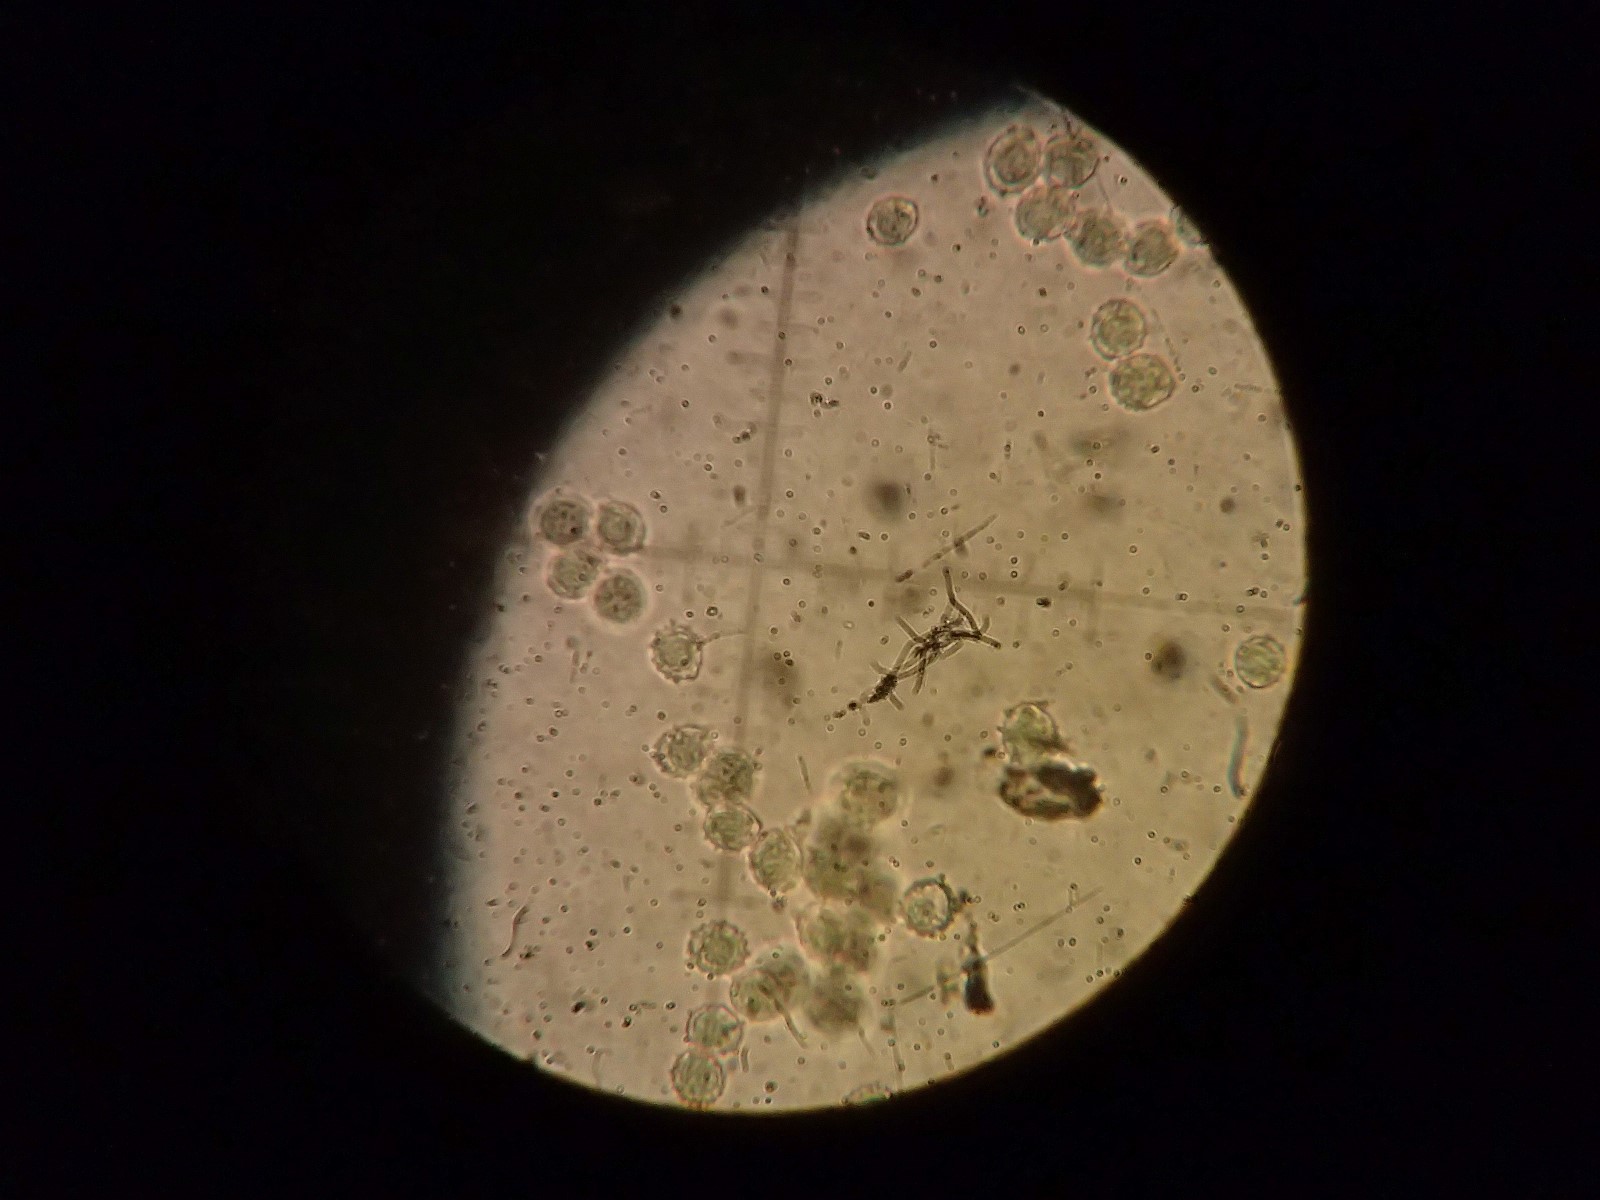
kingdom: Fungi
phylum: Basidiomycota
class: Agaricomycetes
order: Russulales
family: Russulaceae
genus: Russula
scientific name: Russula integra
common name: mandel-skørhat
